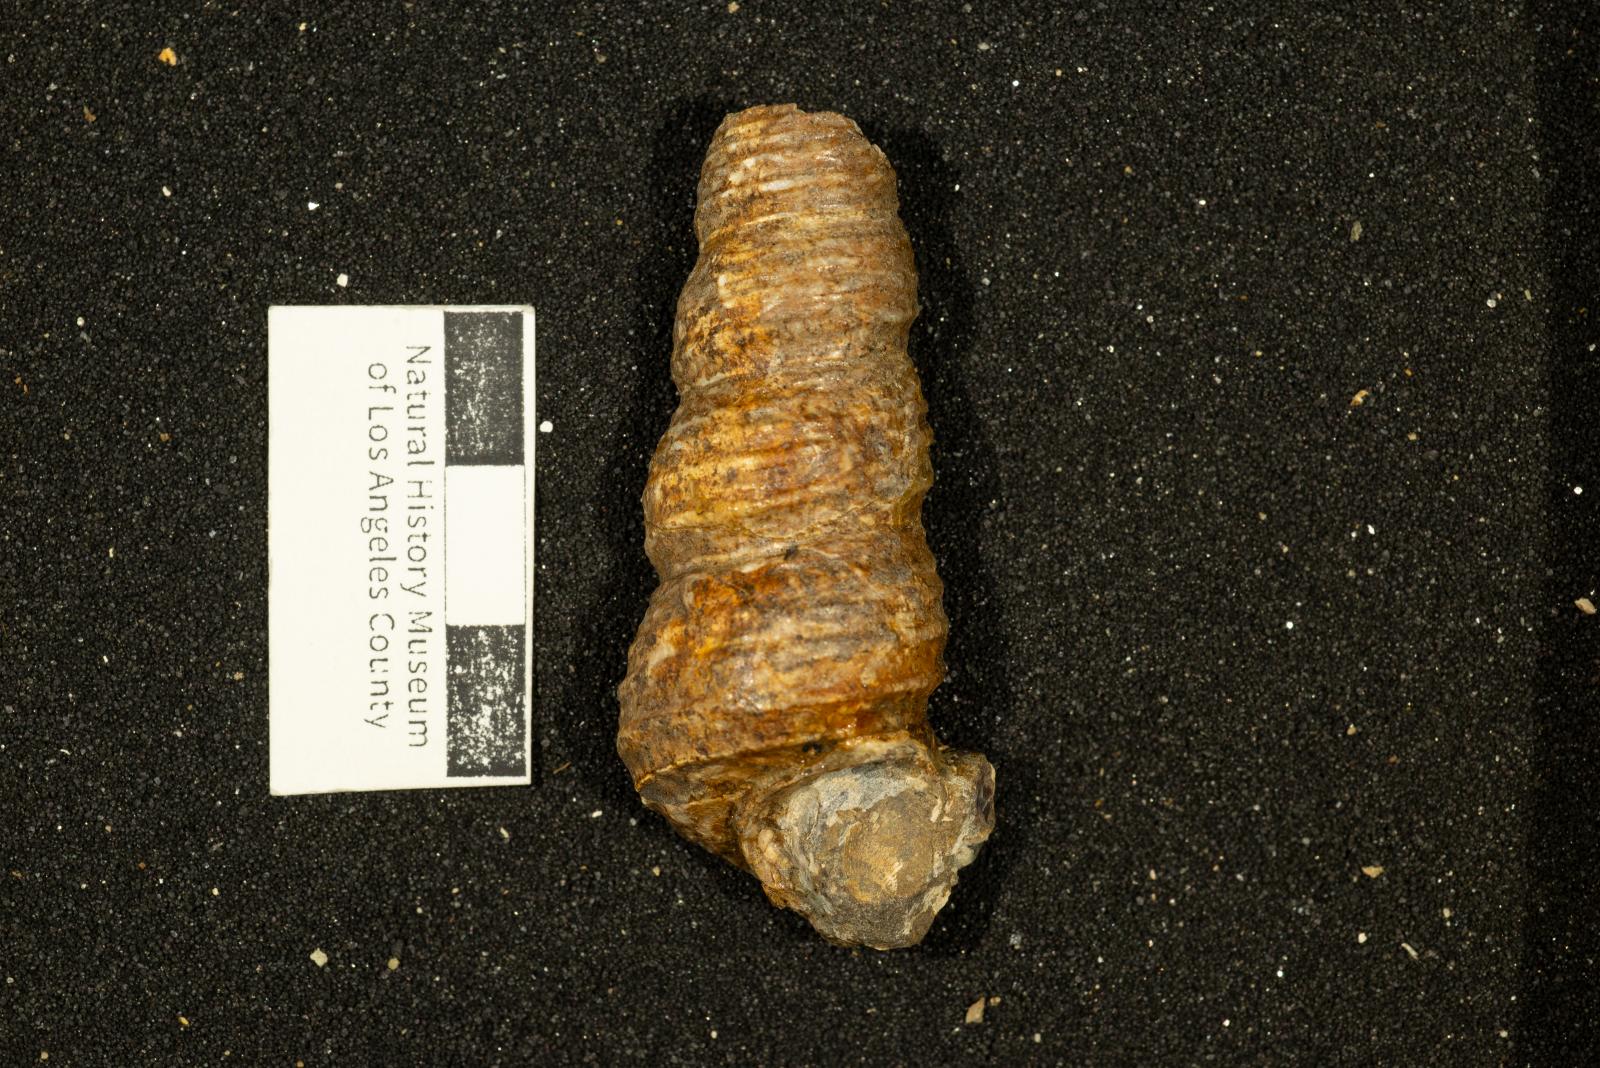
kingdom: Animalia
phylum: Mollusca
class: Gastropoda
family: Turritellidae
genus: Turritella
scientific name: Turritella chicoensis
